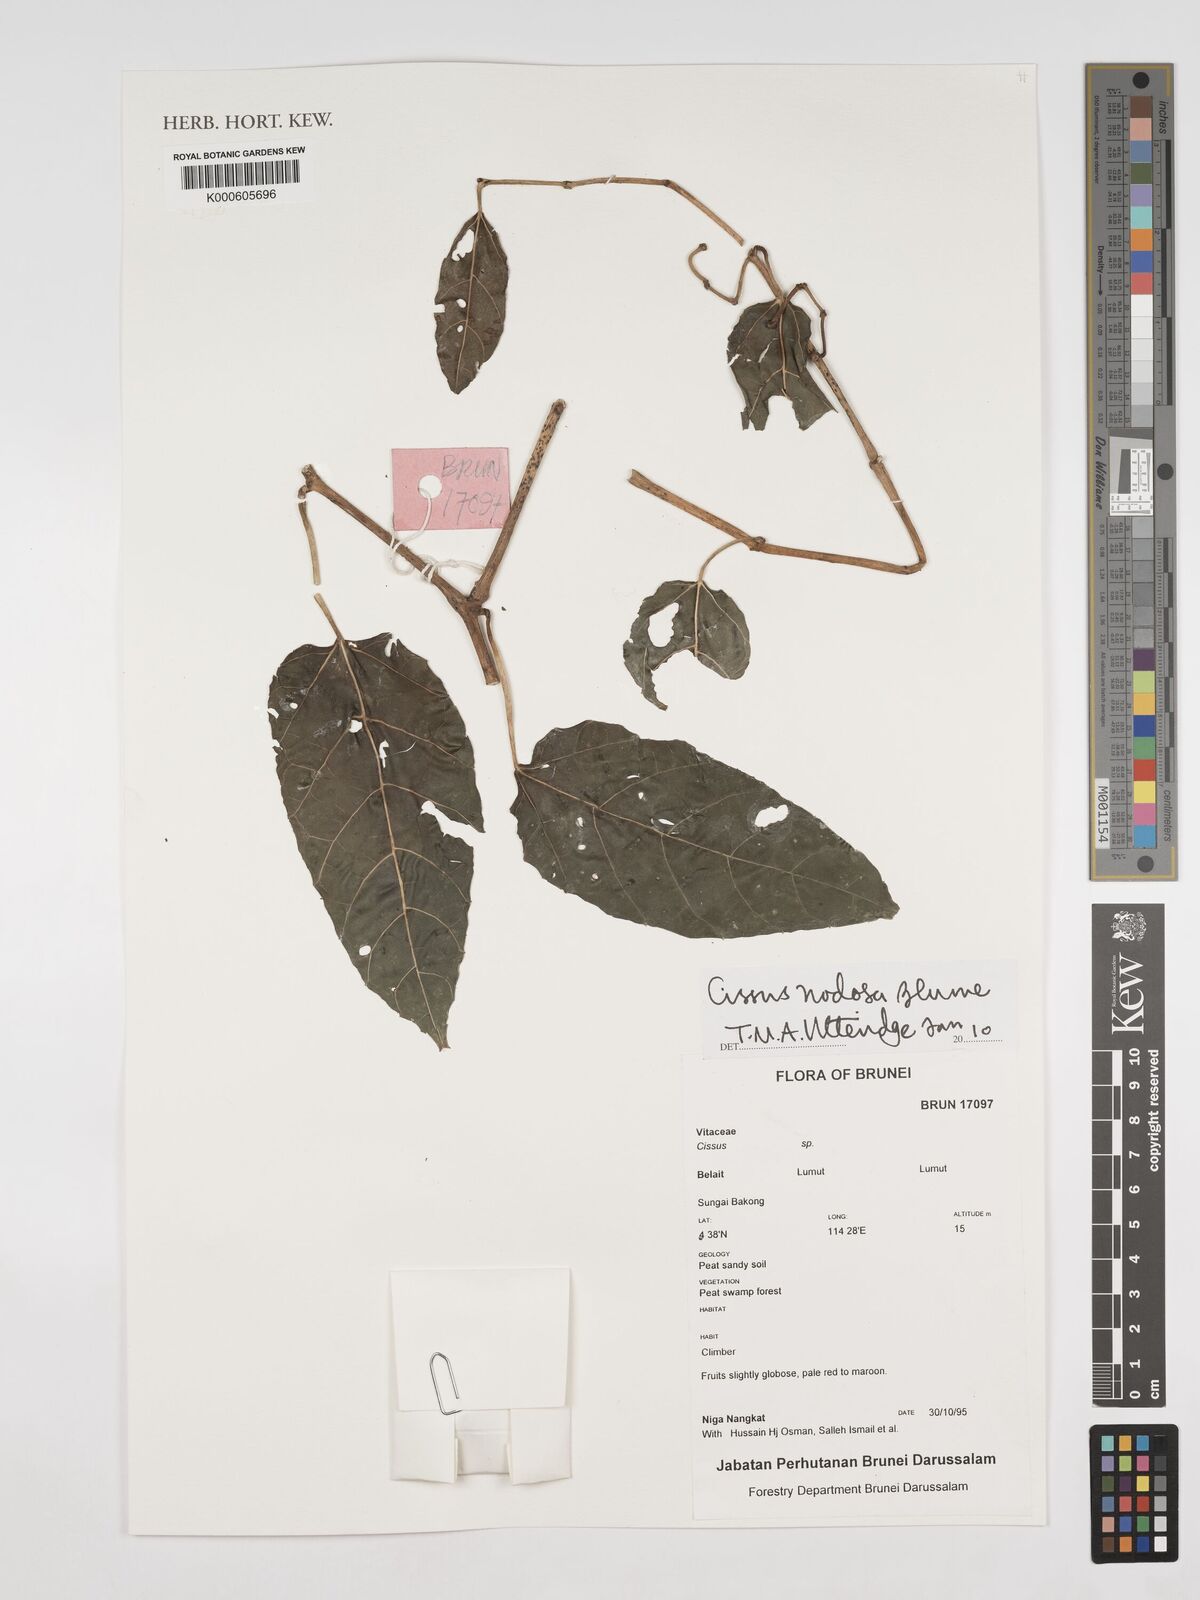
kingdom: Plantae
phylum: Tracheophyta
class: Magnoliopsida
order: Vitales
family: Vitaceae
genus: Cissus
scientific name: Cissus nodosa
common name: Grape ivy
